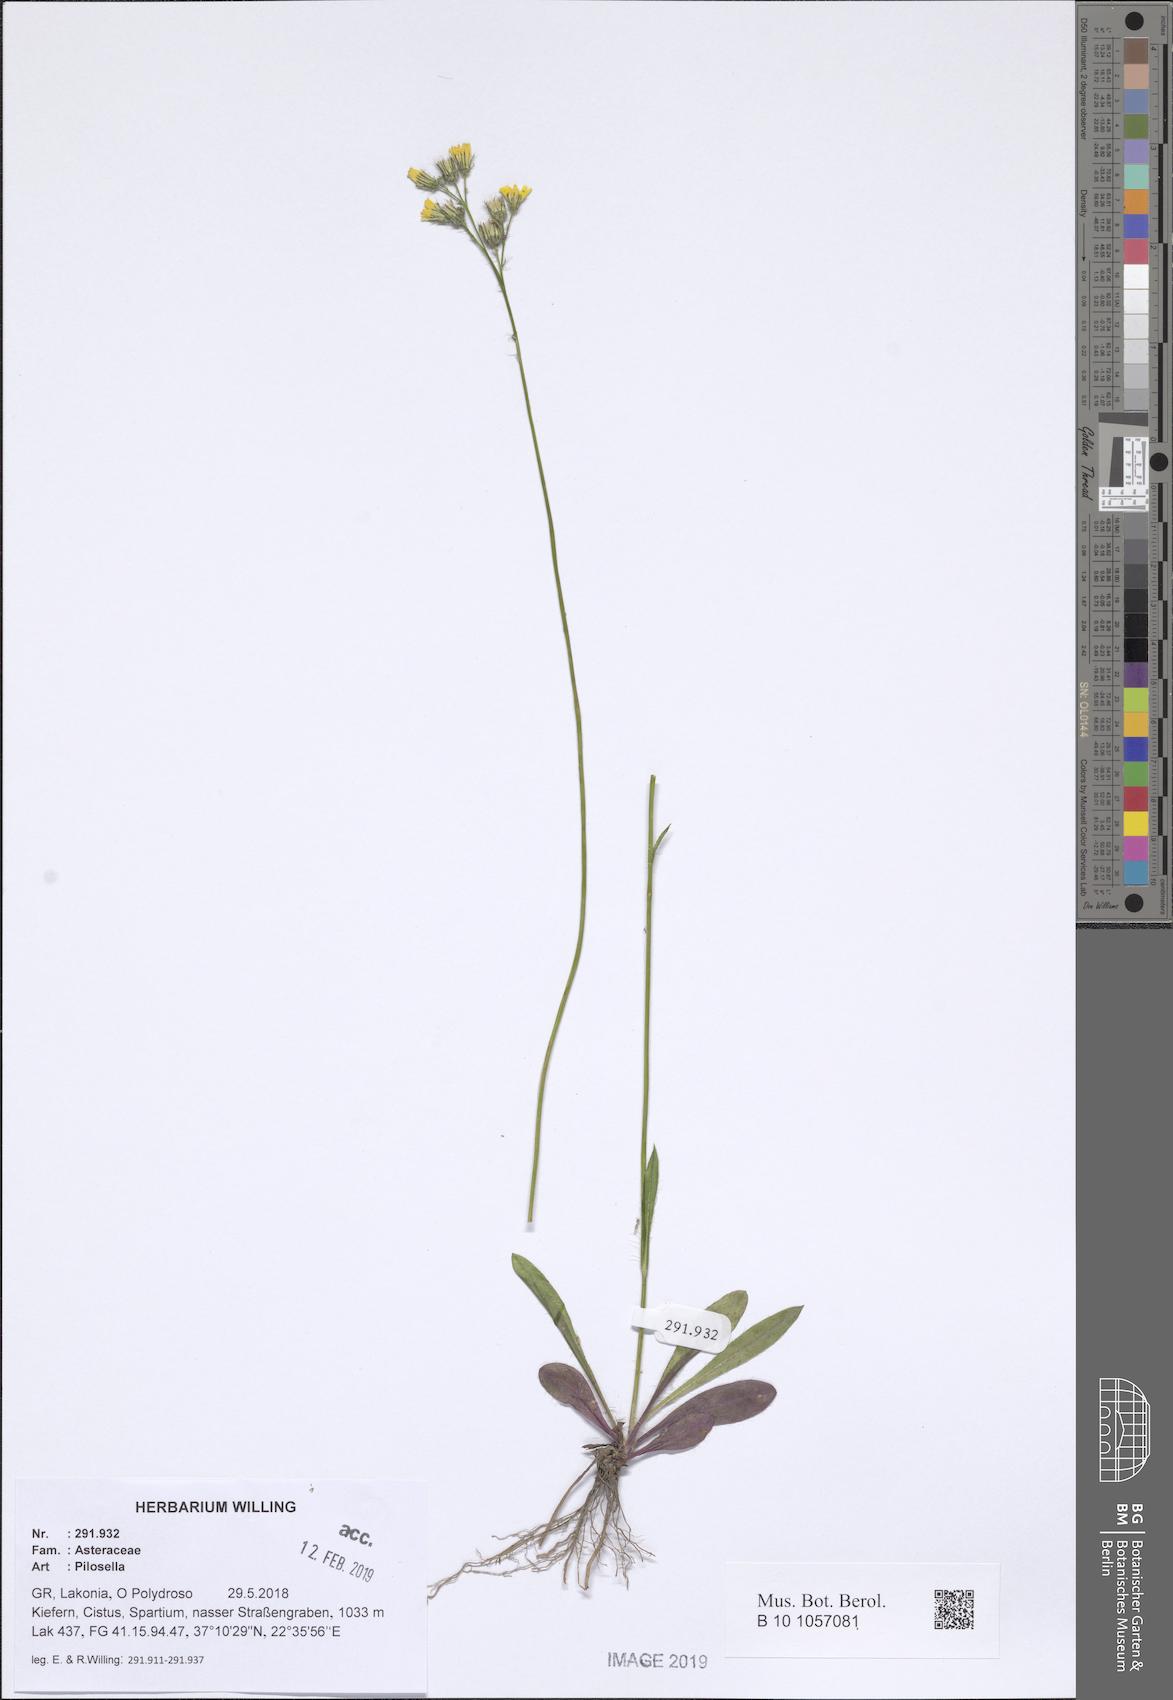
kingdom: Plantae
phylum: Tracheophyta
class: Magnoliopsida
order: Asterales
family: Asteraceae
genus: Pilosella
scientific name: Pilosella
